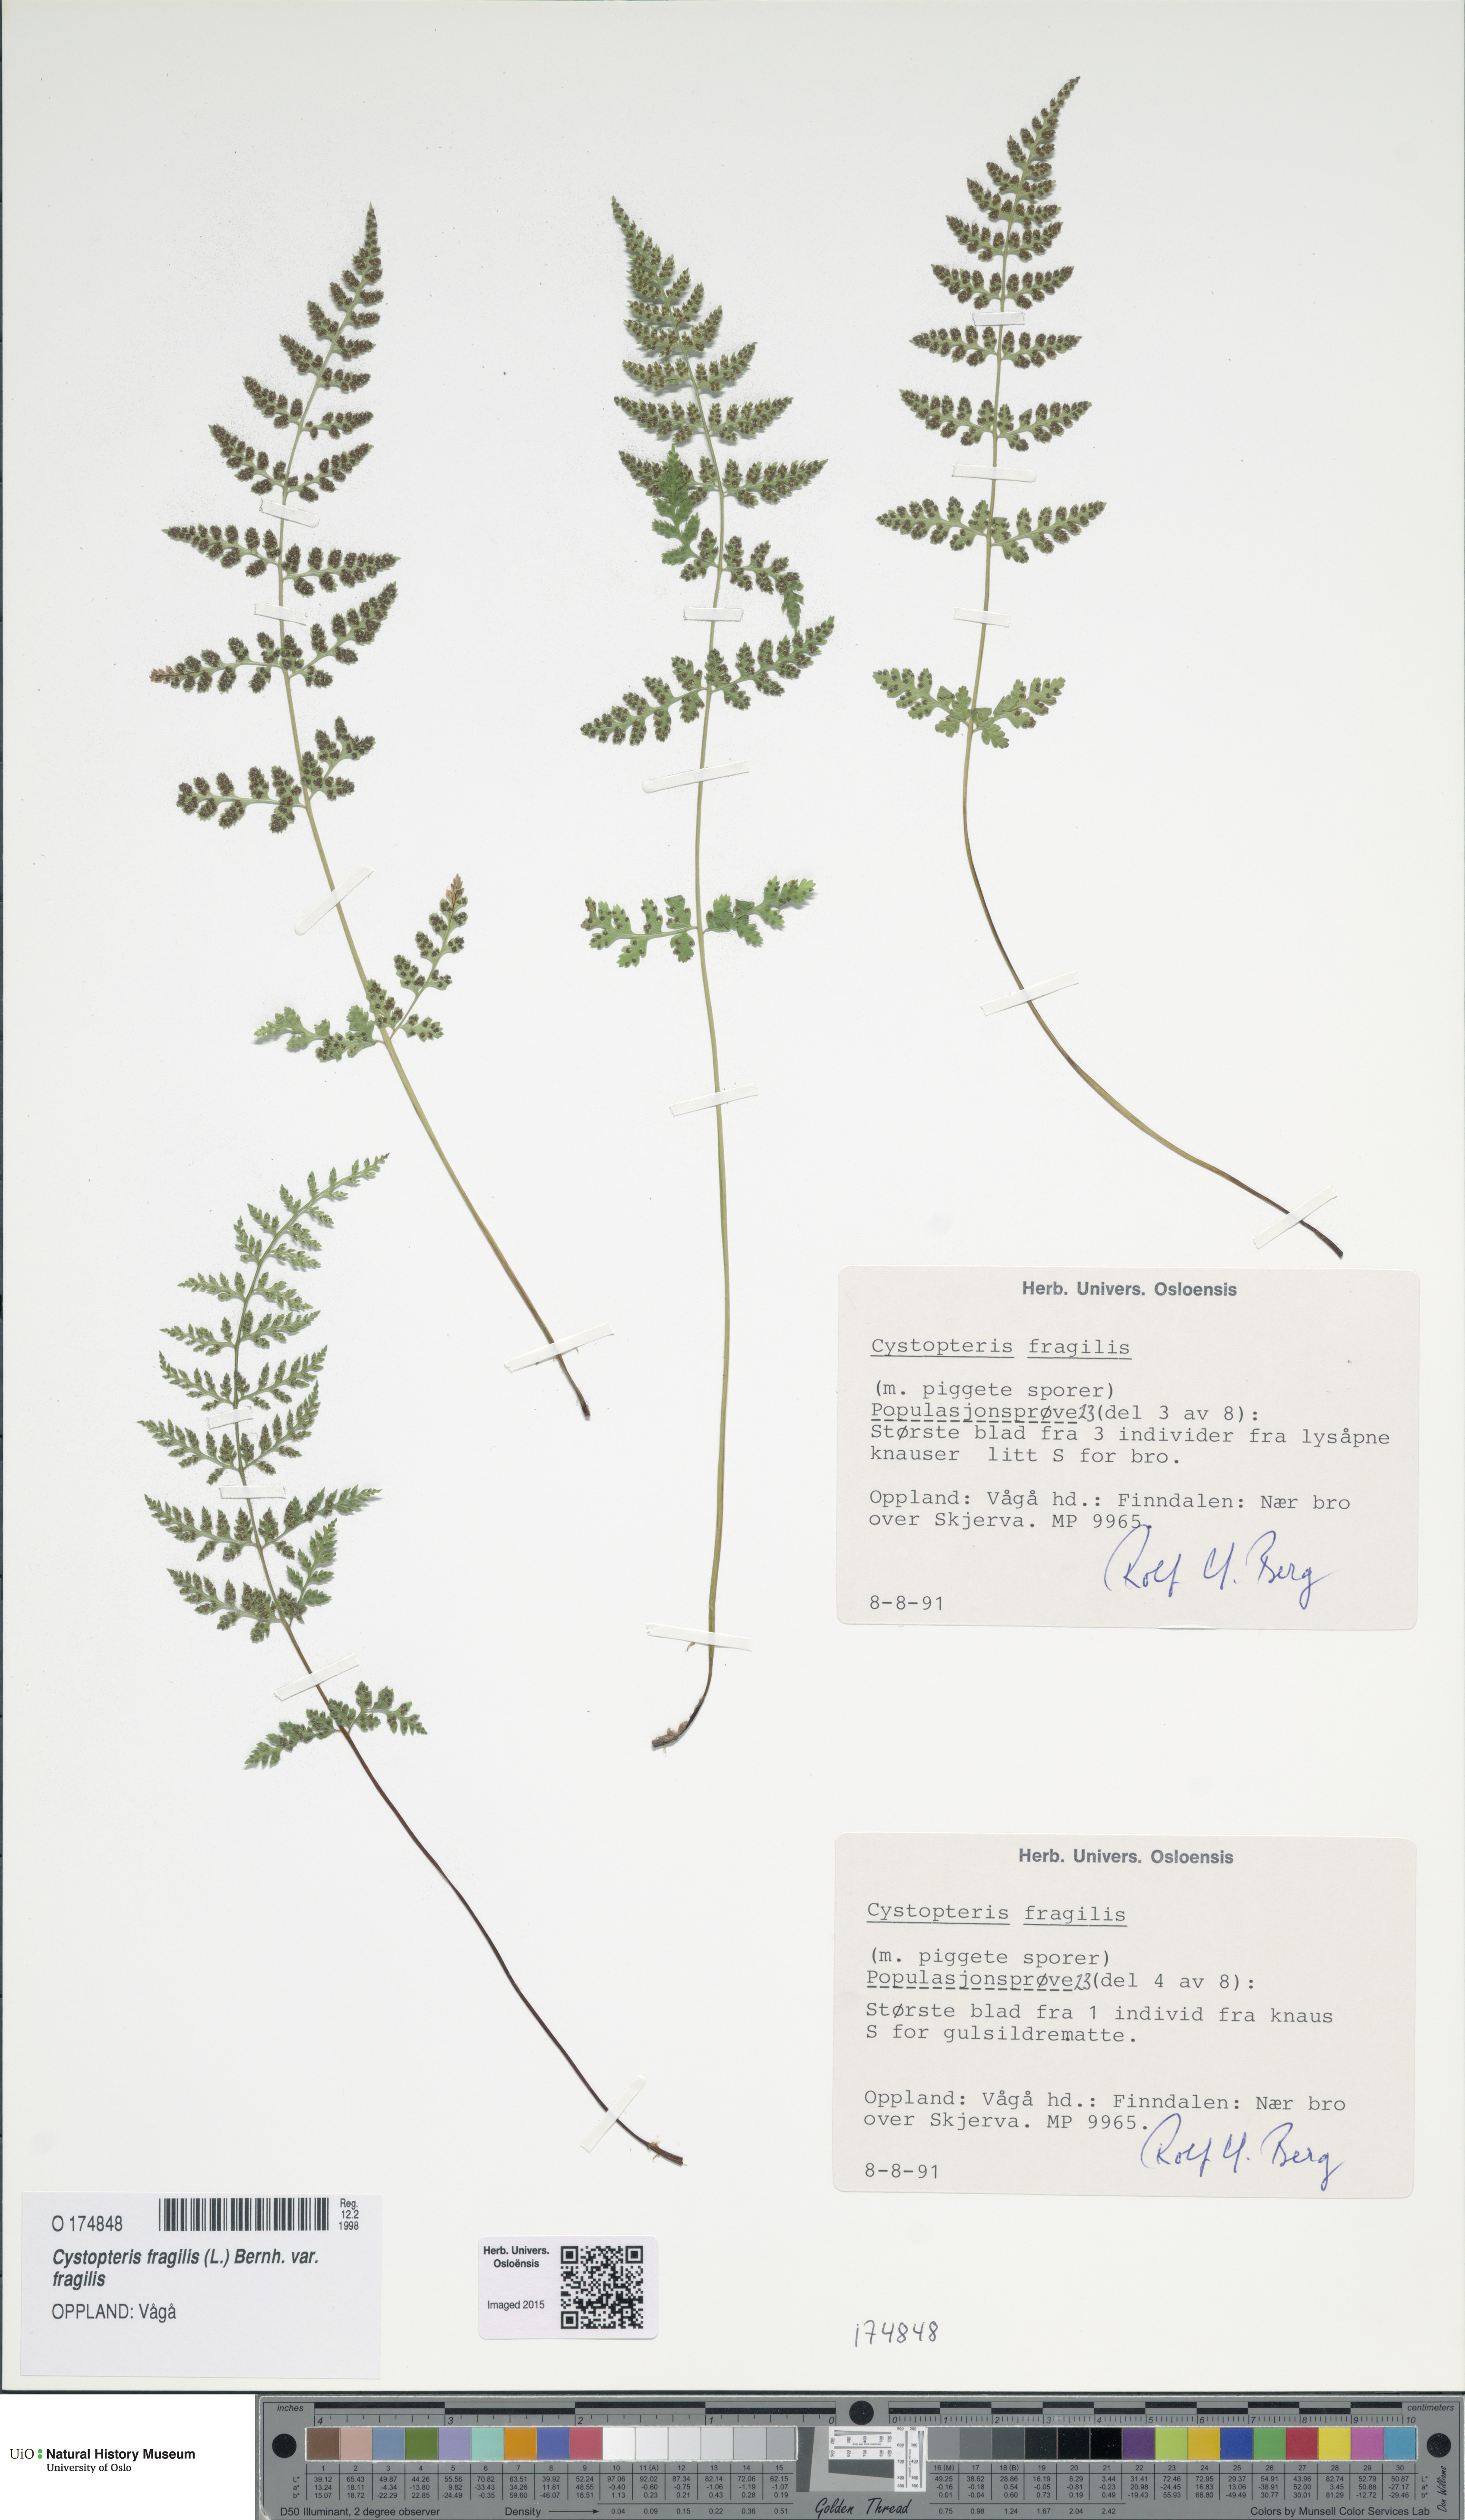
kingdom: Plantae
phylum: Tracheophyta
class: Polypodiopsida
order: Polypodiales
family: Cystopteridaceae
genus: Cystopteris
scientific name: Cystopteris fragilis
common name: Brittle bladder fern
